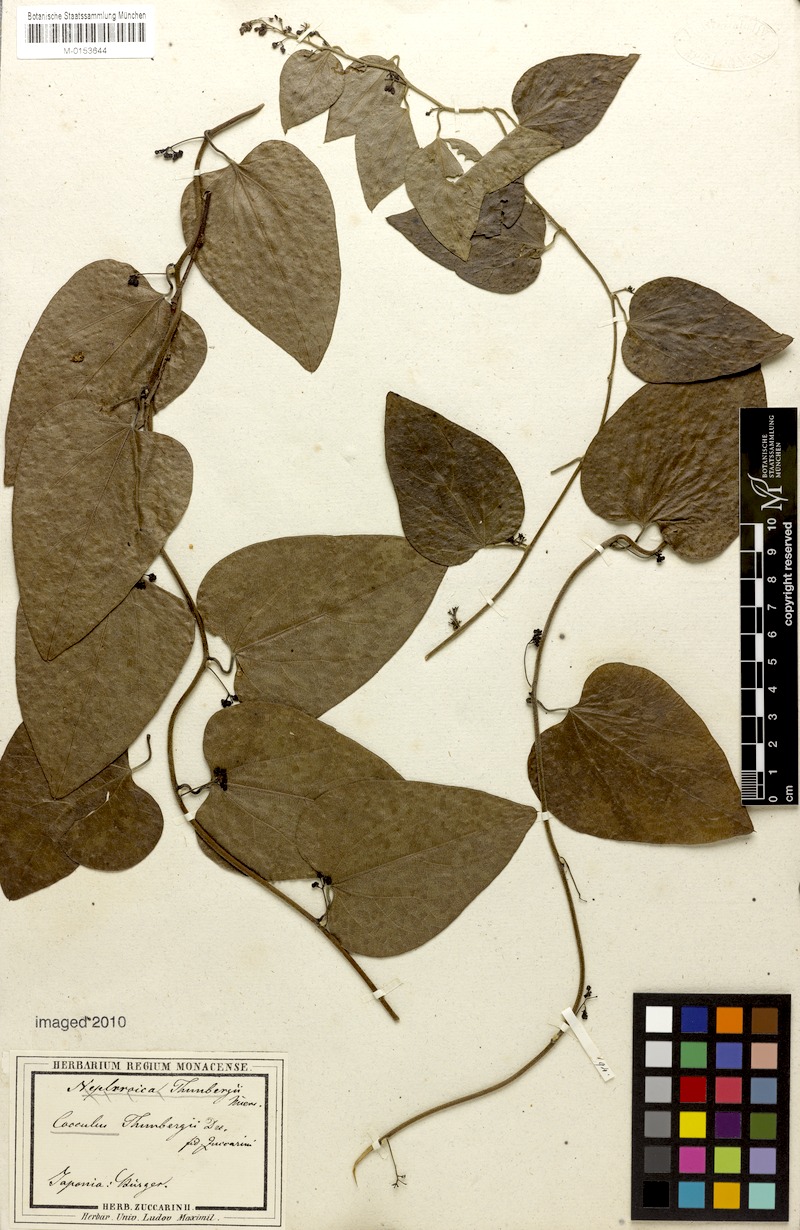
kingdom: Plantae
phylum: Tracheophyta
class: Magnoliopsida
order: Ranunculales
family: Menispermaceae
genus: Cocculus
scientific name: Cocculus orbiculatus
